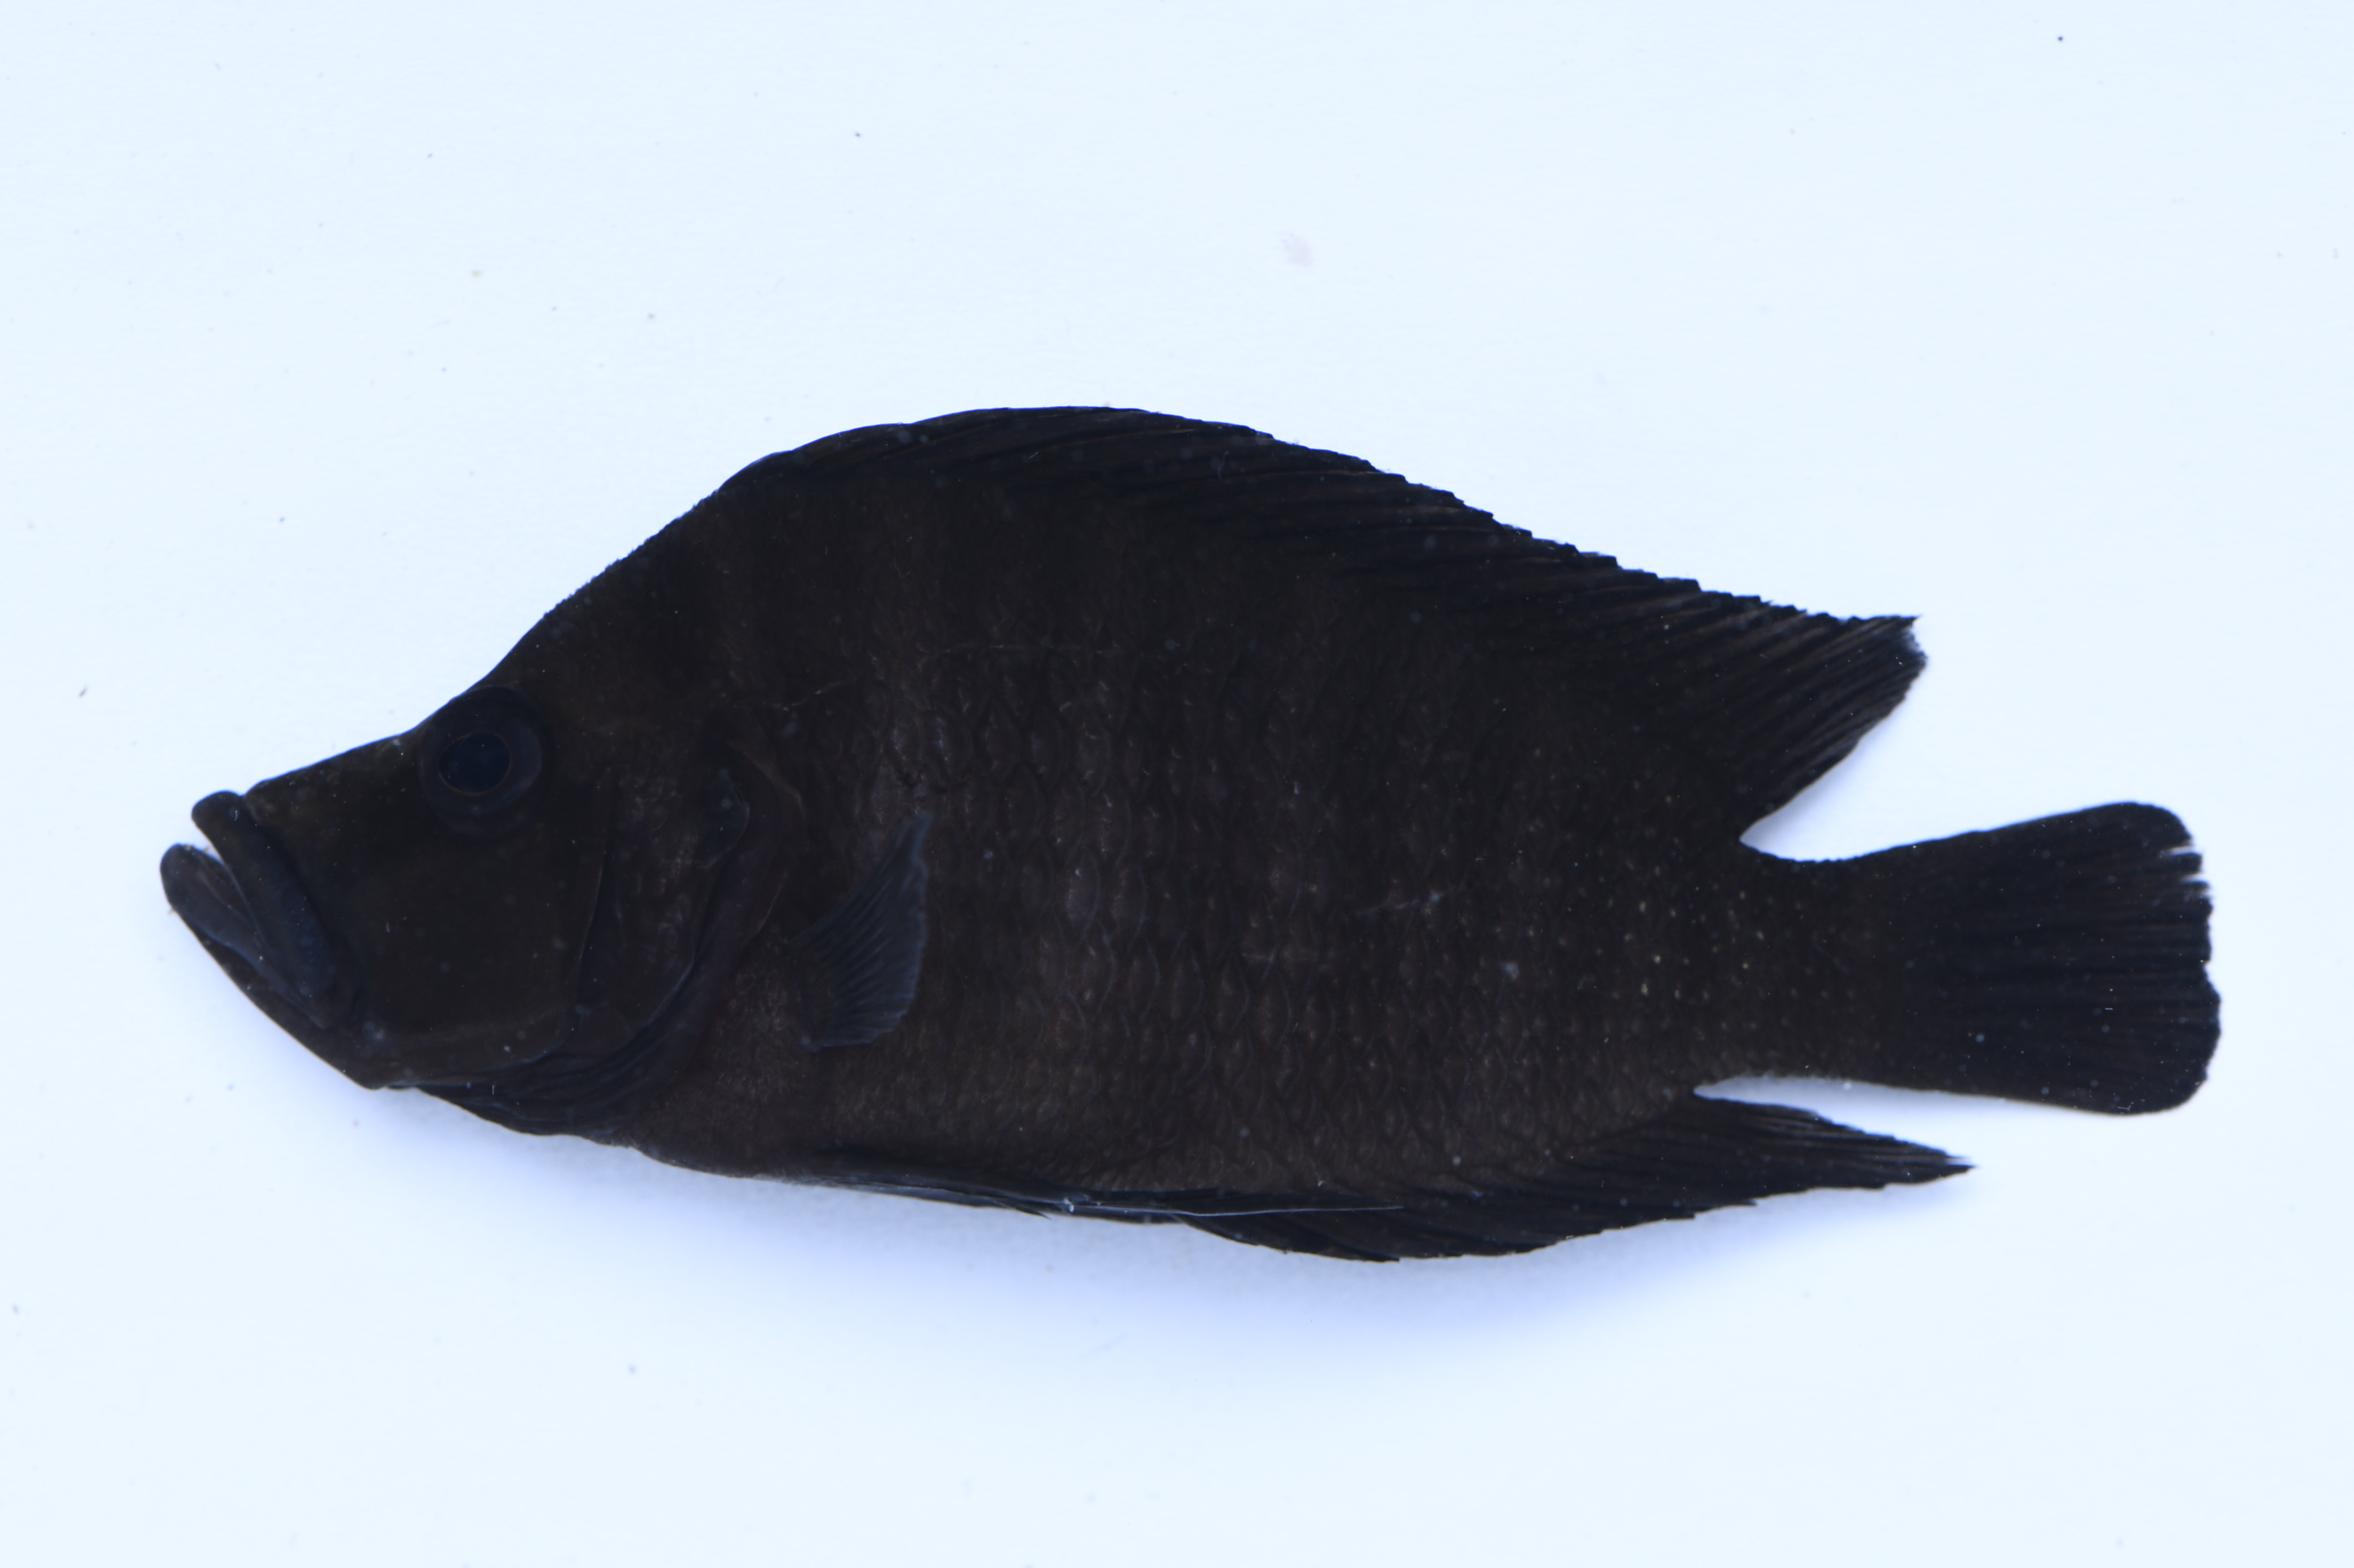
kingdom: Animalia
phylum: Chordata
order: Perciformes
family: Cichlidae
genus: Altolamprologus
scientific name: Altolamprologus compressiceps
